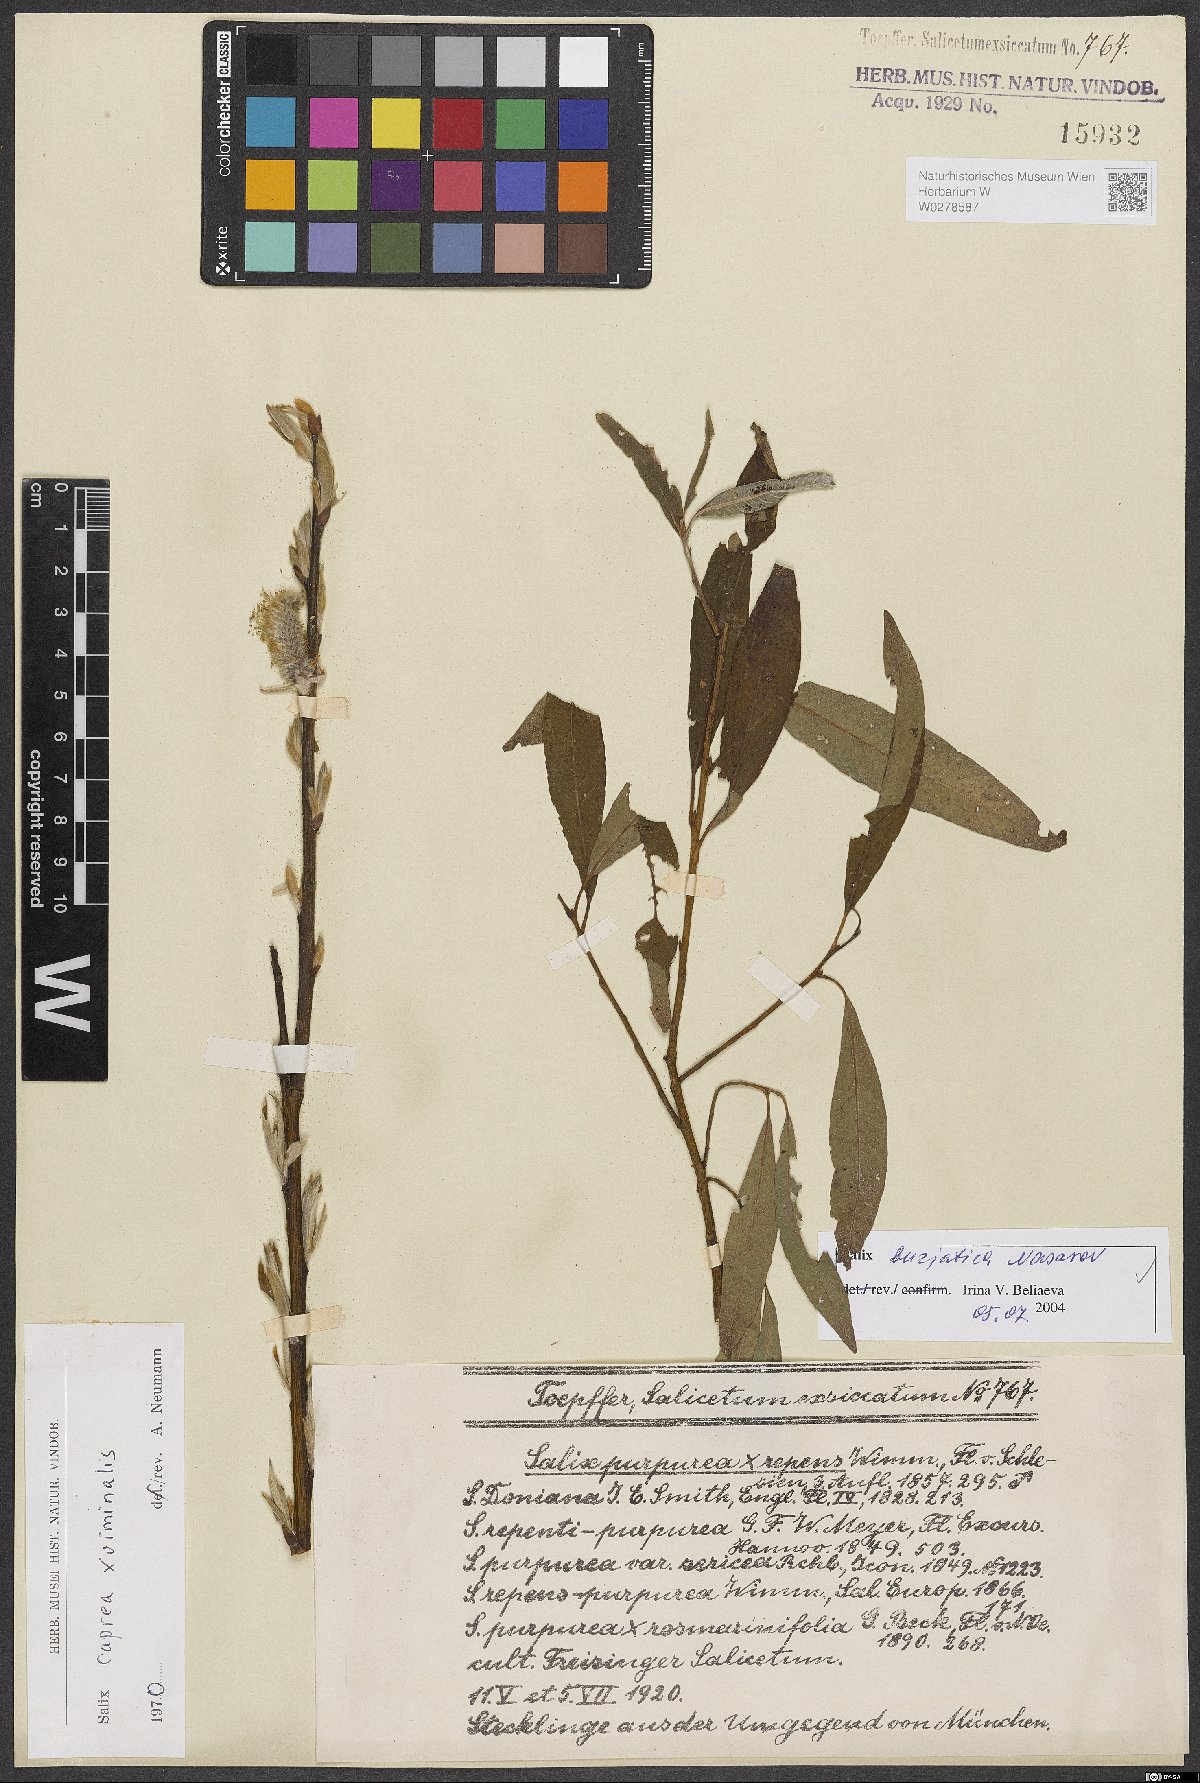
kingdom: Plantae
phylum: Tracheophyta
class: Magnoliopsida
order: Malpighiales
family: Salicaceae
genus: Salix
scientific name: Salix gmelinii
